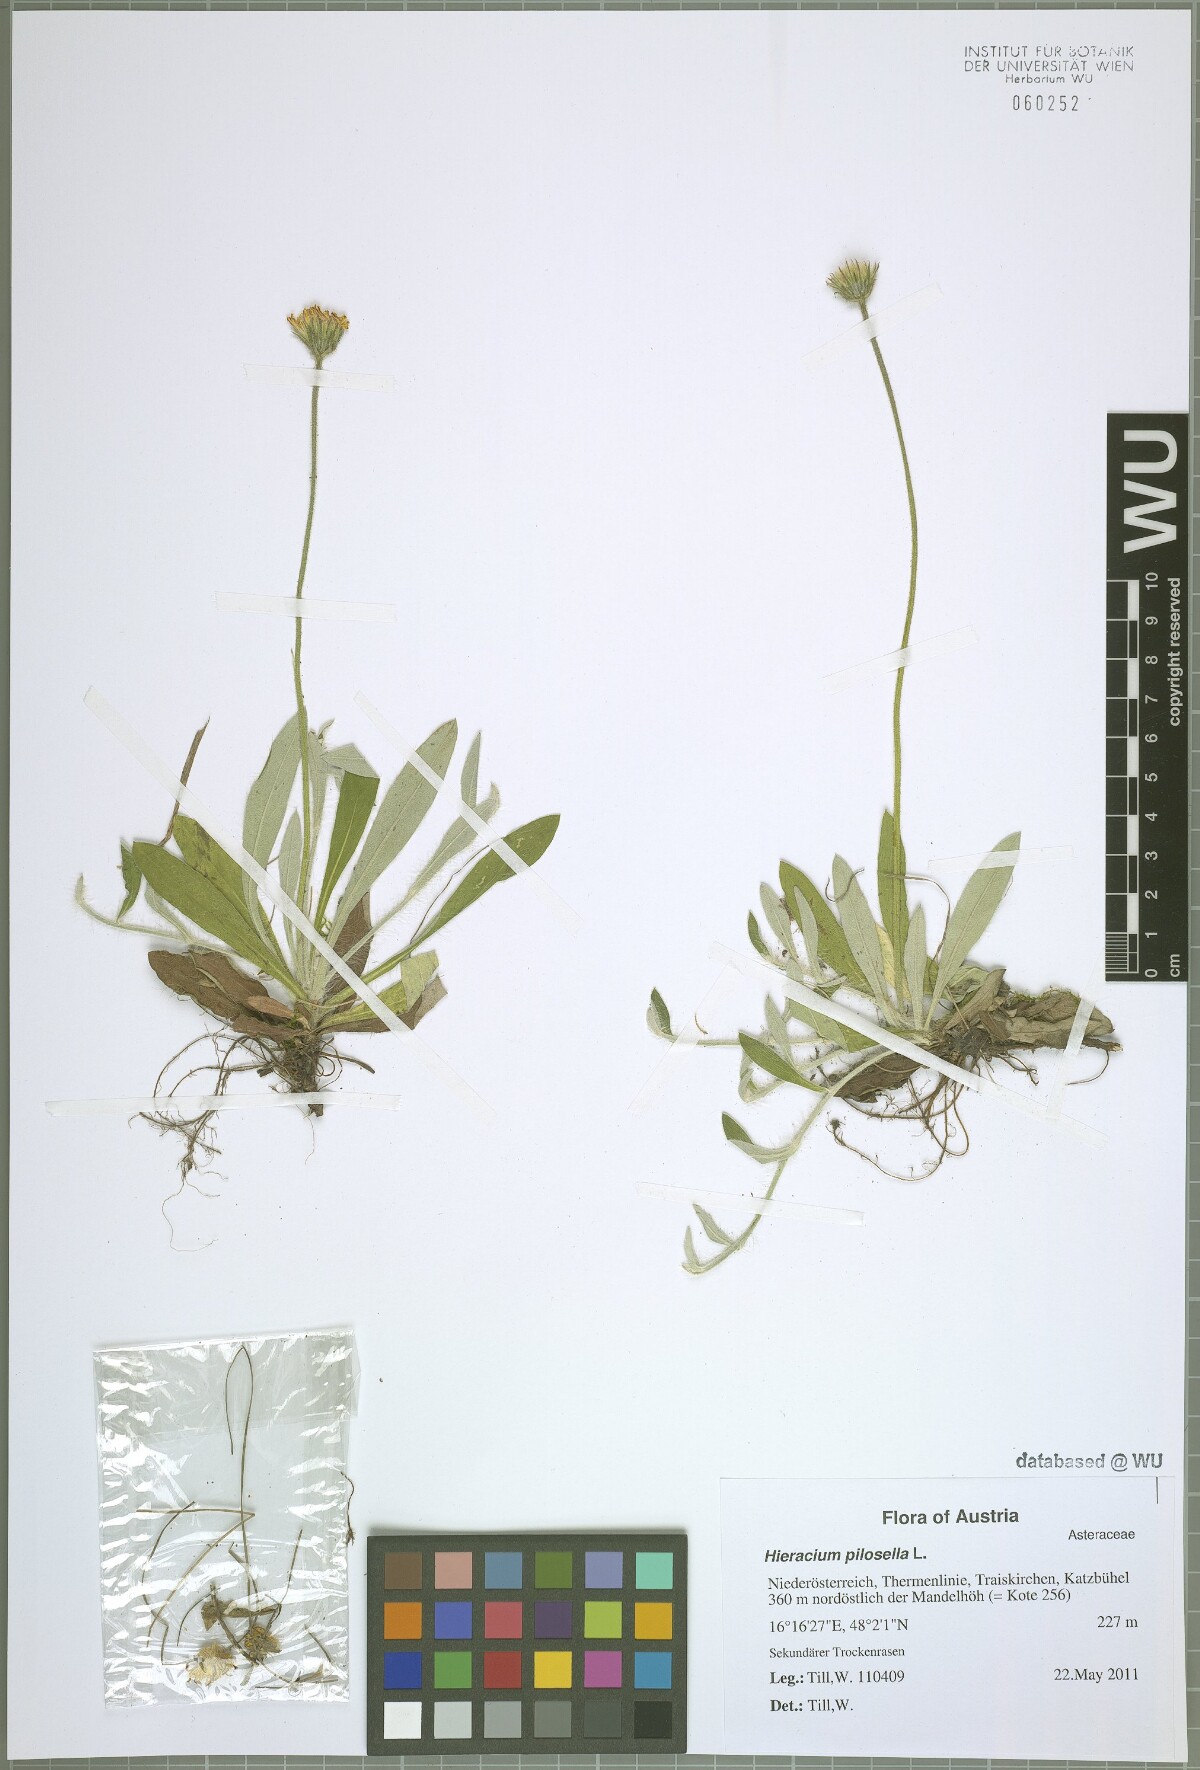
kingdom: Plantae
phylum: Tracheophyta
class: Magnoliopsida
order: Asterales
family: Asteraceae
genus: Pilosella
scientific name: Pilosella officinarum
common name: Mouse-ear hawkweed
